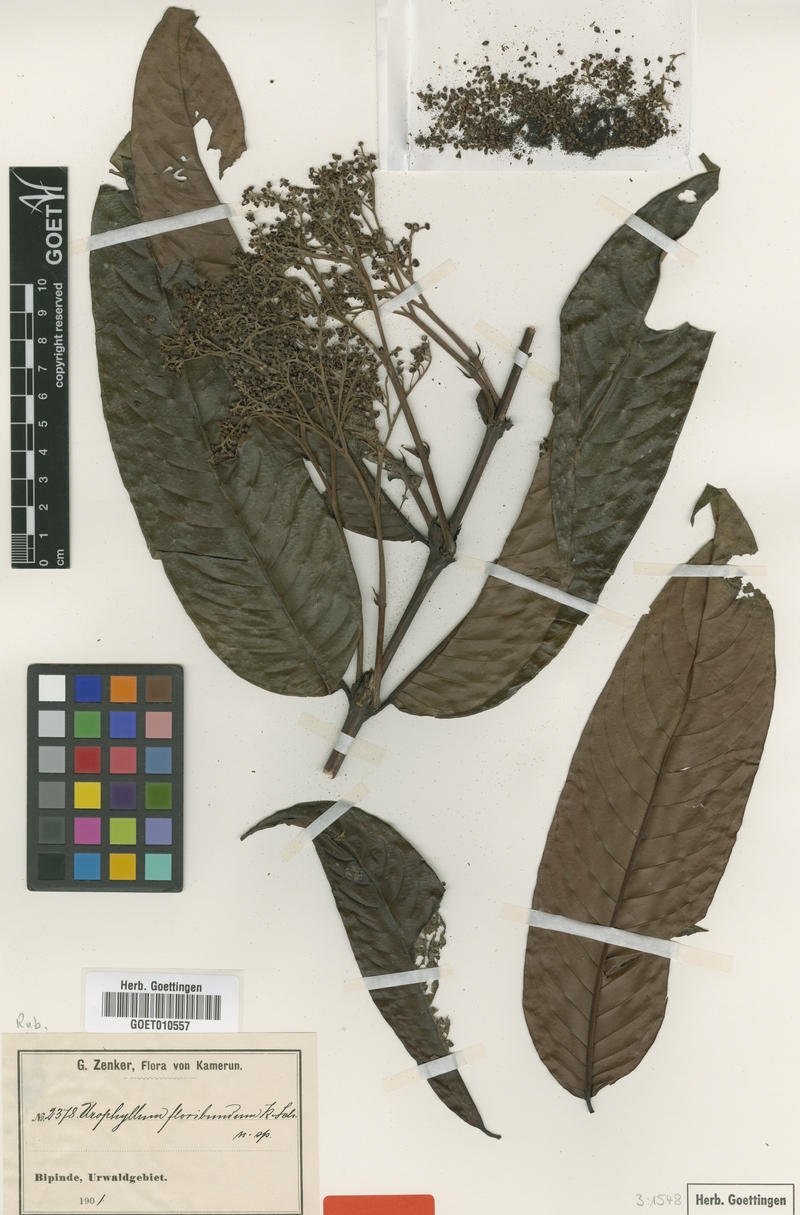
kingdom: Plantae
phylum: Tracheophyta
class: Magnoliopsida
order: Gentianales
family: Rubiaceae
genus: Pauridiantha
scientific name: Pauridiantha floribunda
